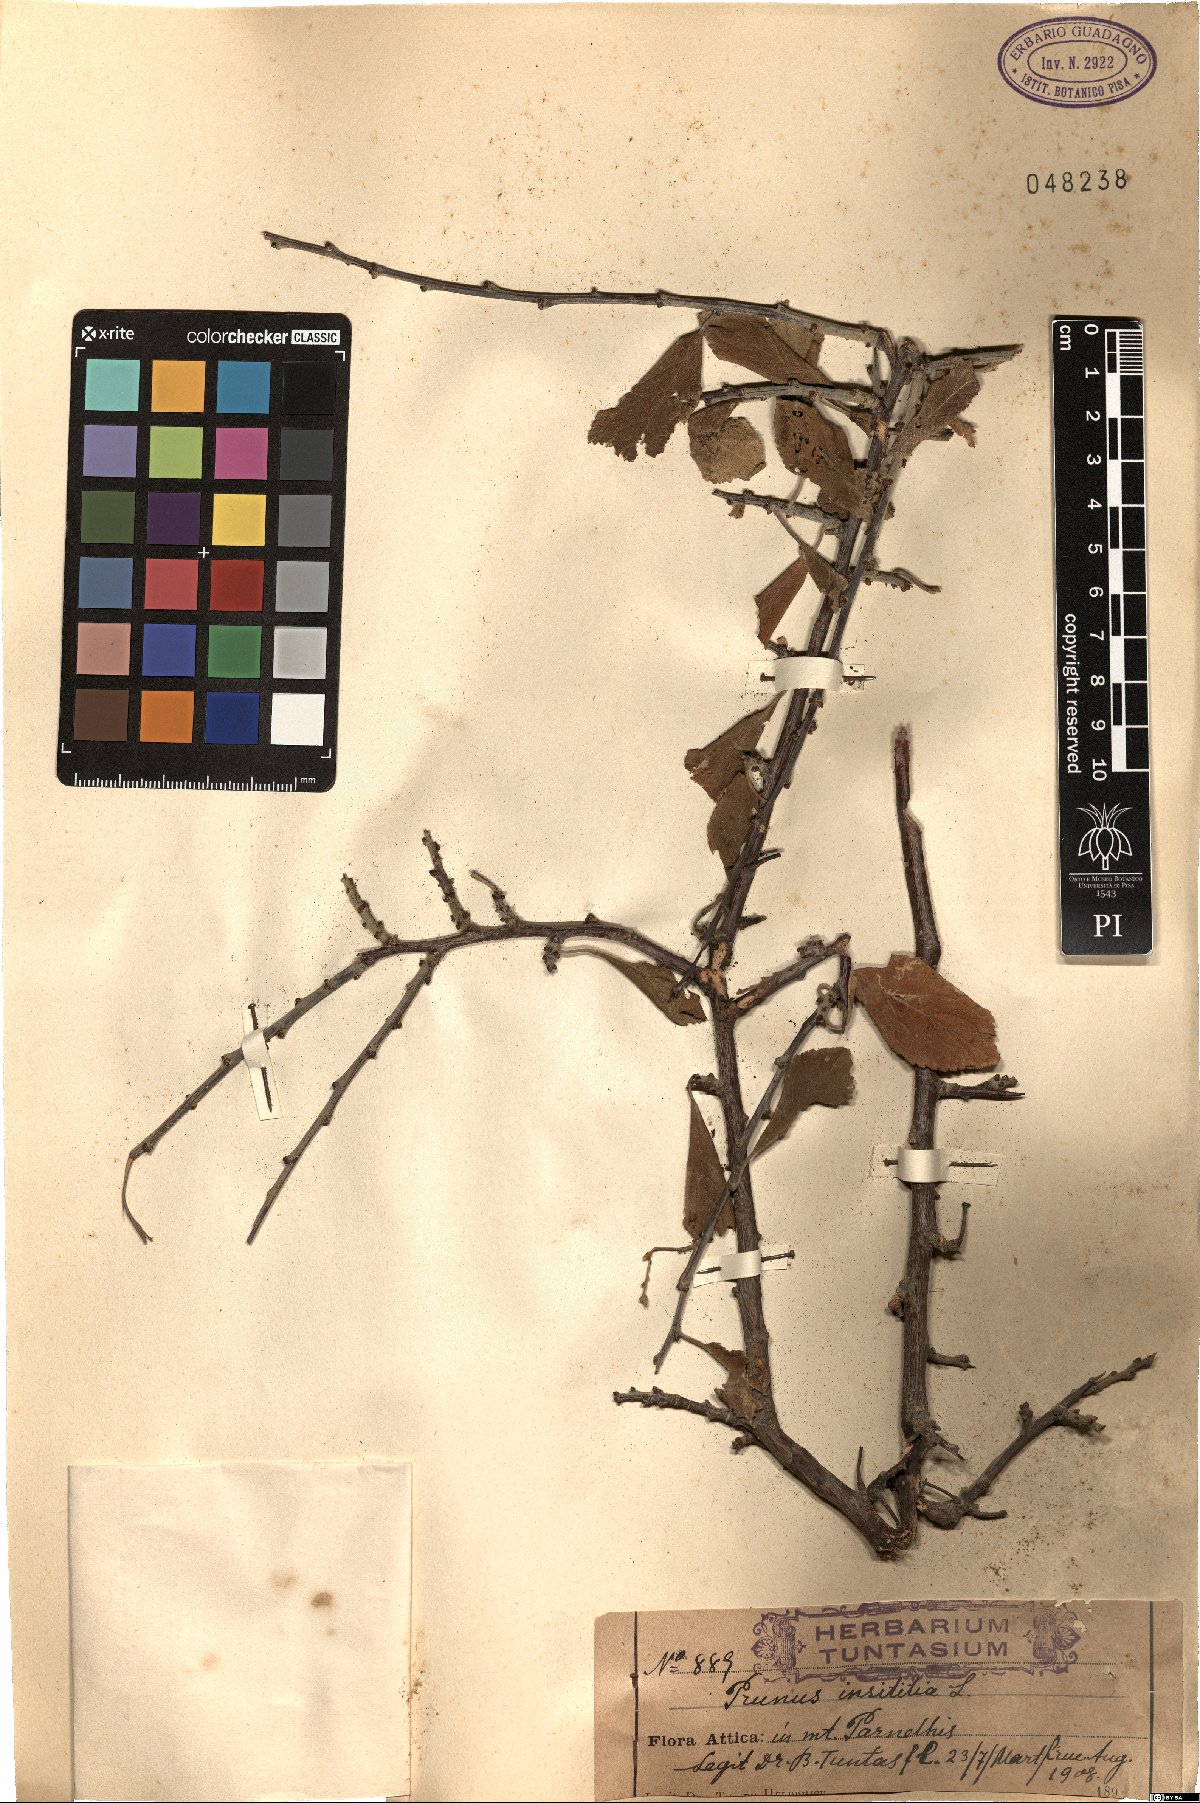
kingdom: Plantae
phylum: Tracheophyta
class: Magnoliopsida
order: Rosales
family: Rosaceae
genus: Prunus
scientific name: Prunus domestica
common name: Wild plum
